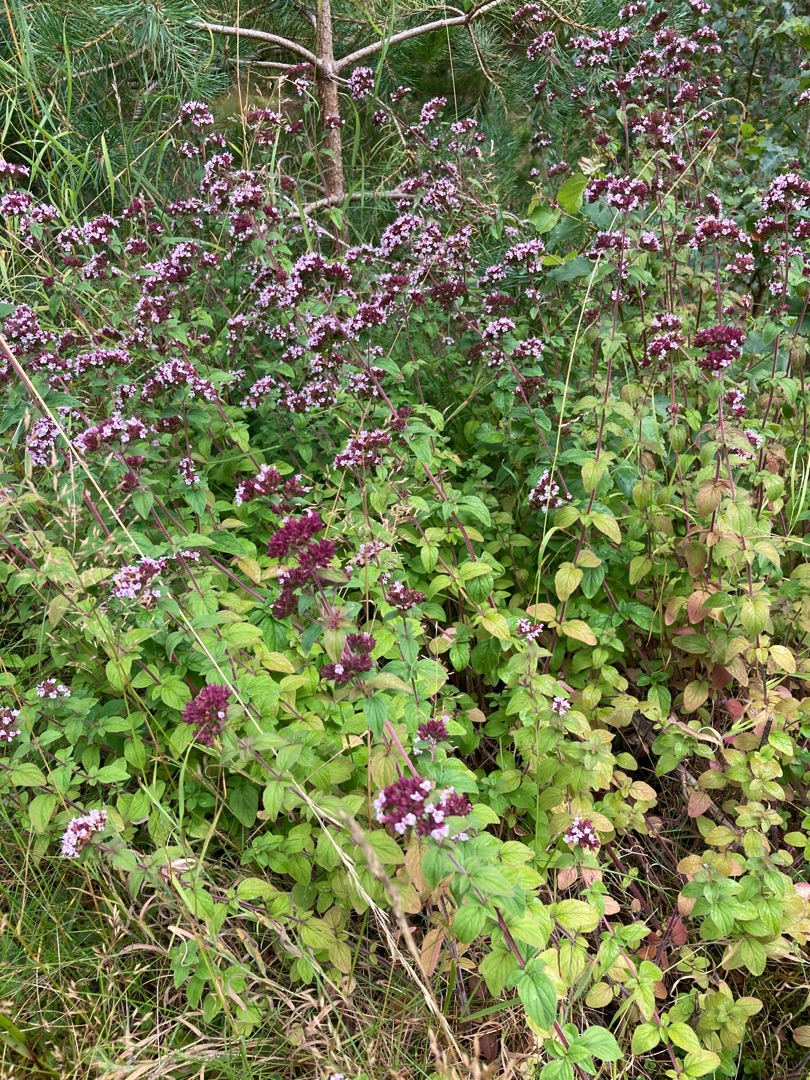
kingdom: Plantae
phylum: Tracheophyta
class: Magnoliopsida
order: Lamiales
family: Lamiaceae
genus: Origanum
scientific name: Origanum vulgare
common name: Merian
